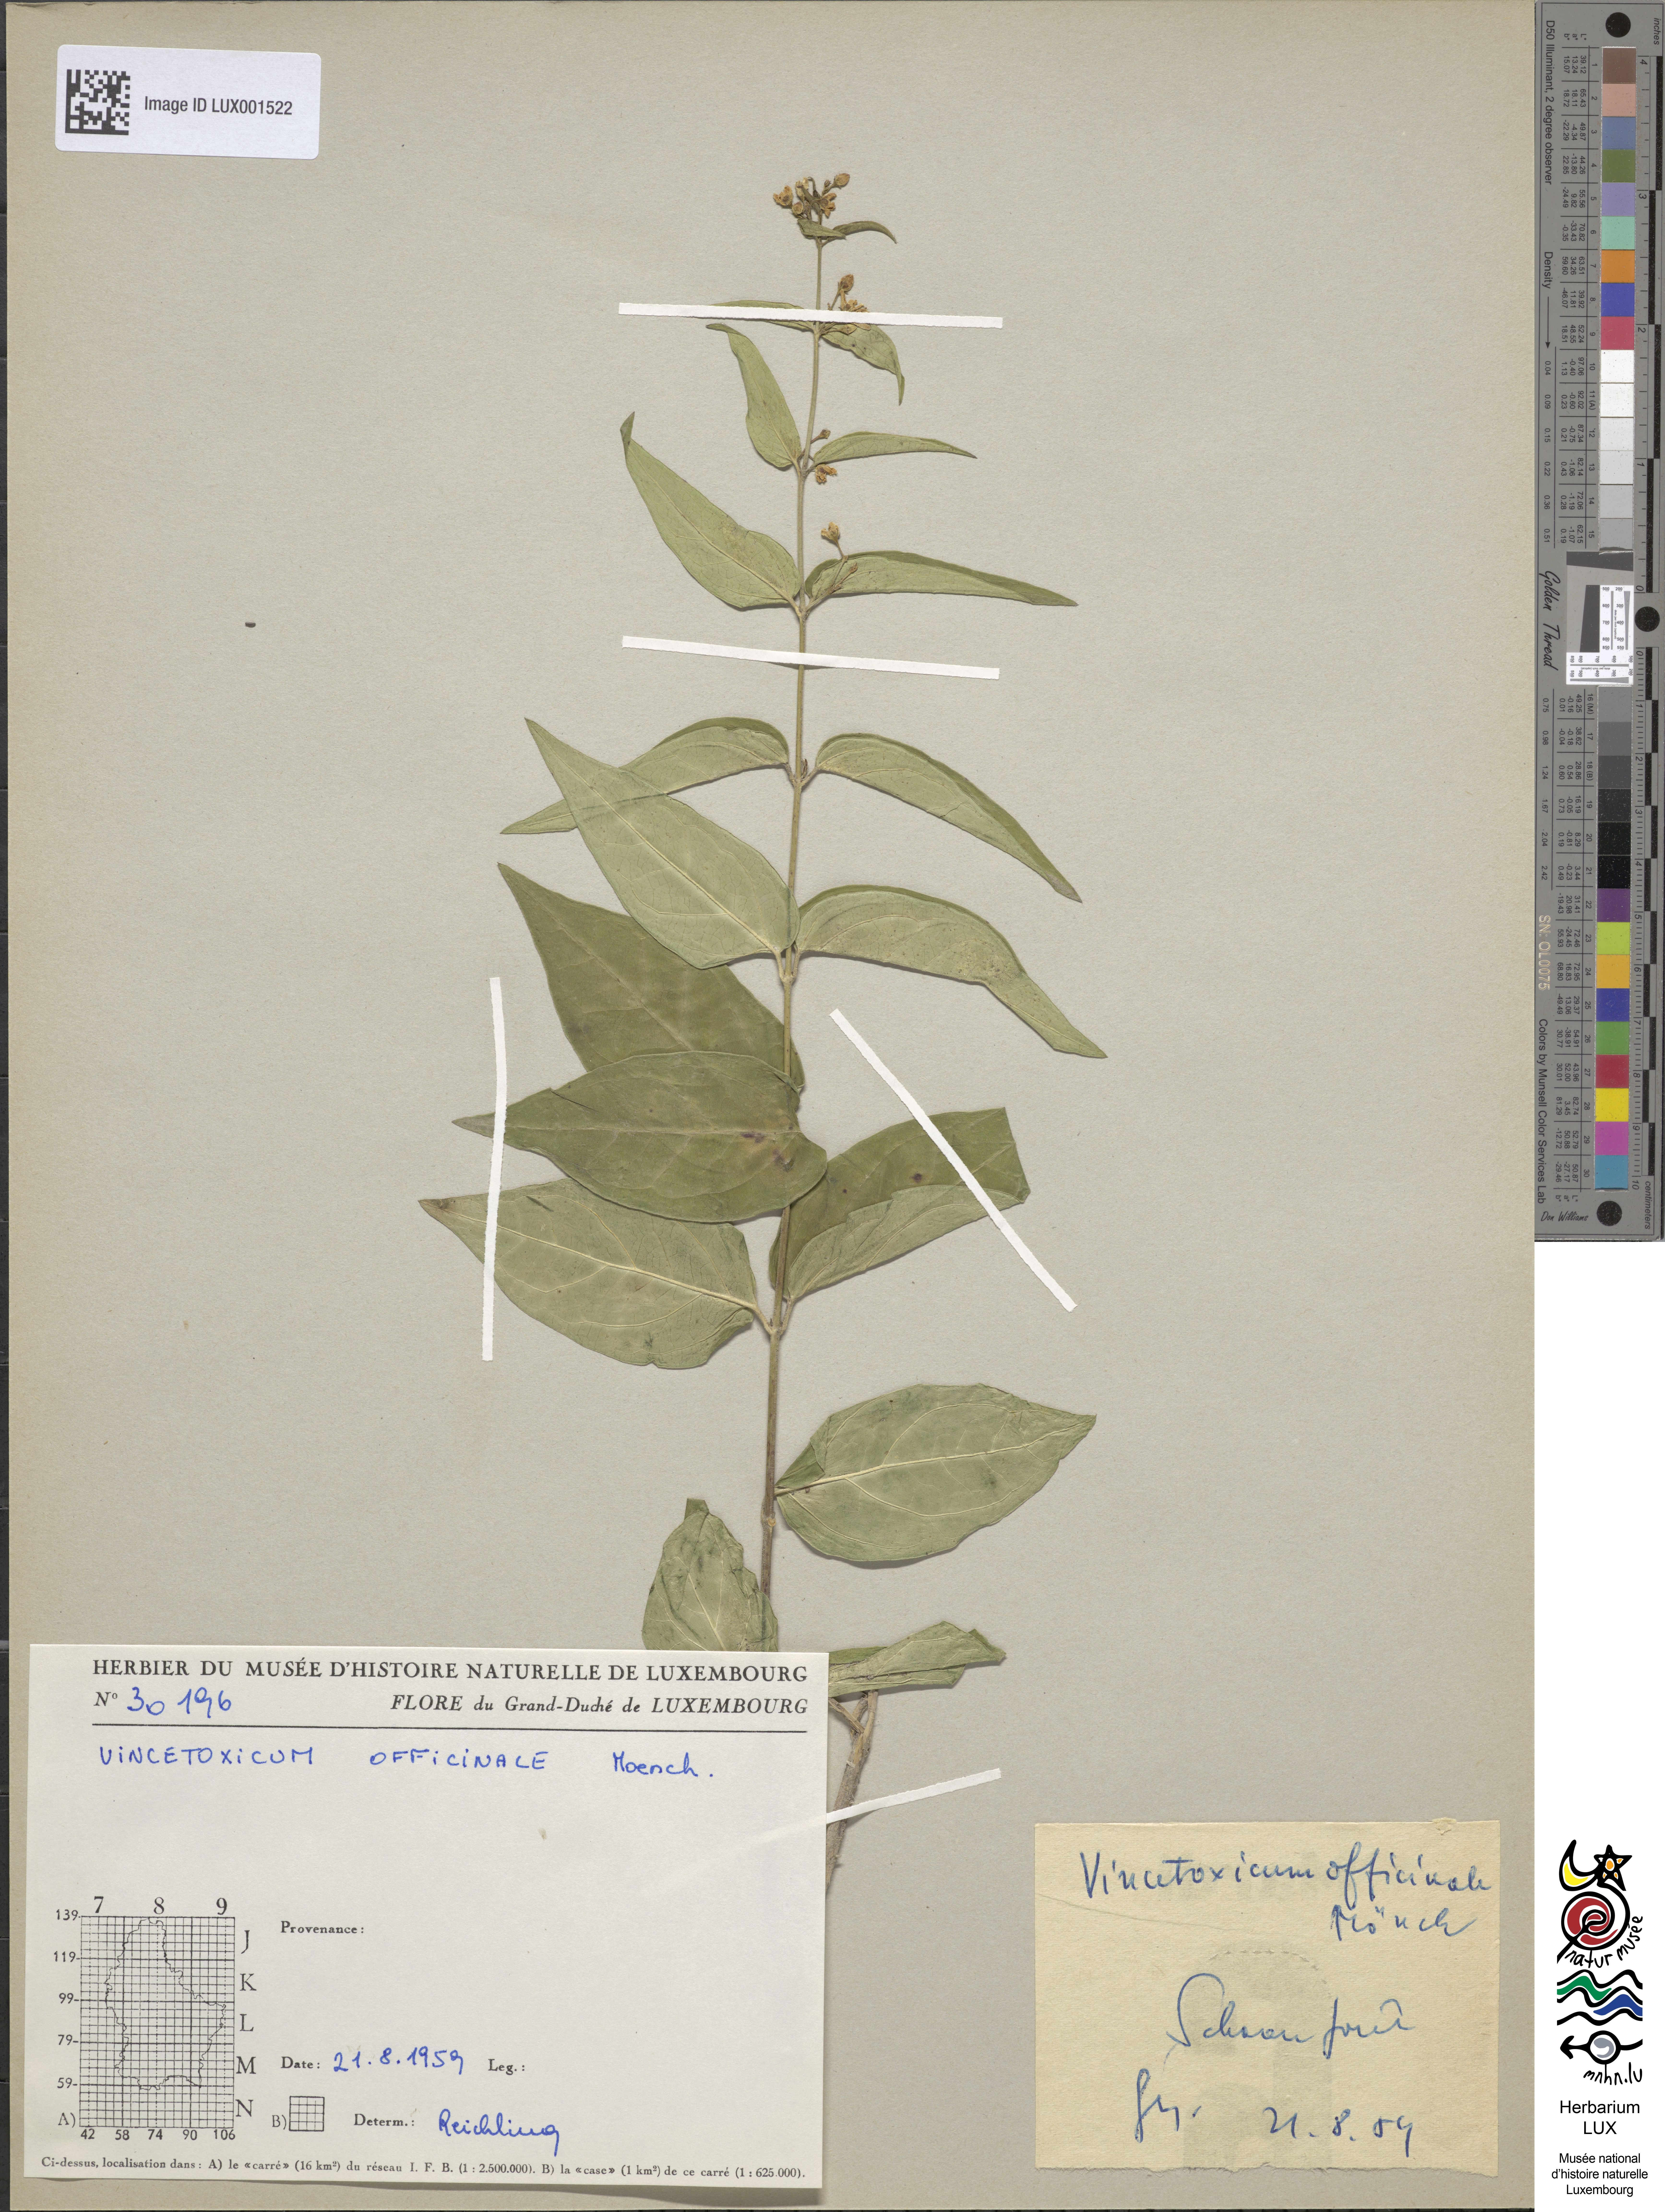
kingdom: Plantae
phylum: Tracheophyta
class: Magnoliopsida
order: Gentianales
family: Apocynaceae
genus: Vincetoxicum
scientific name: Vincetoxicum hirundinaria
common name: White swallowwort
